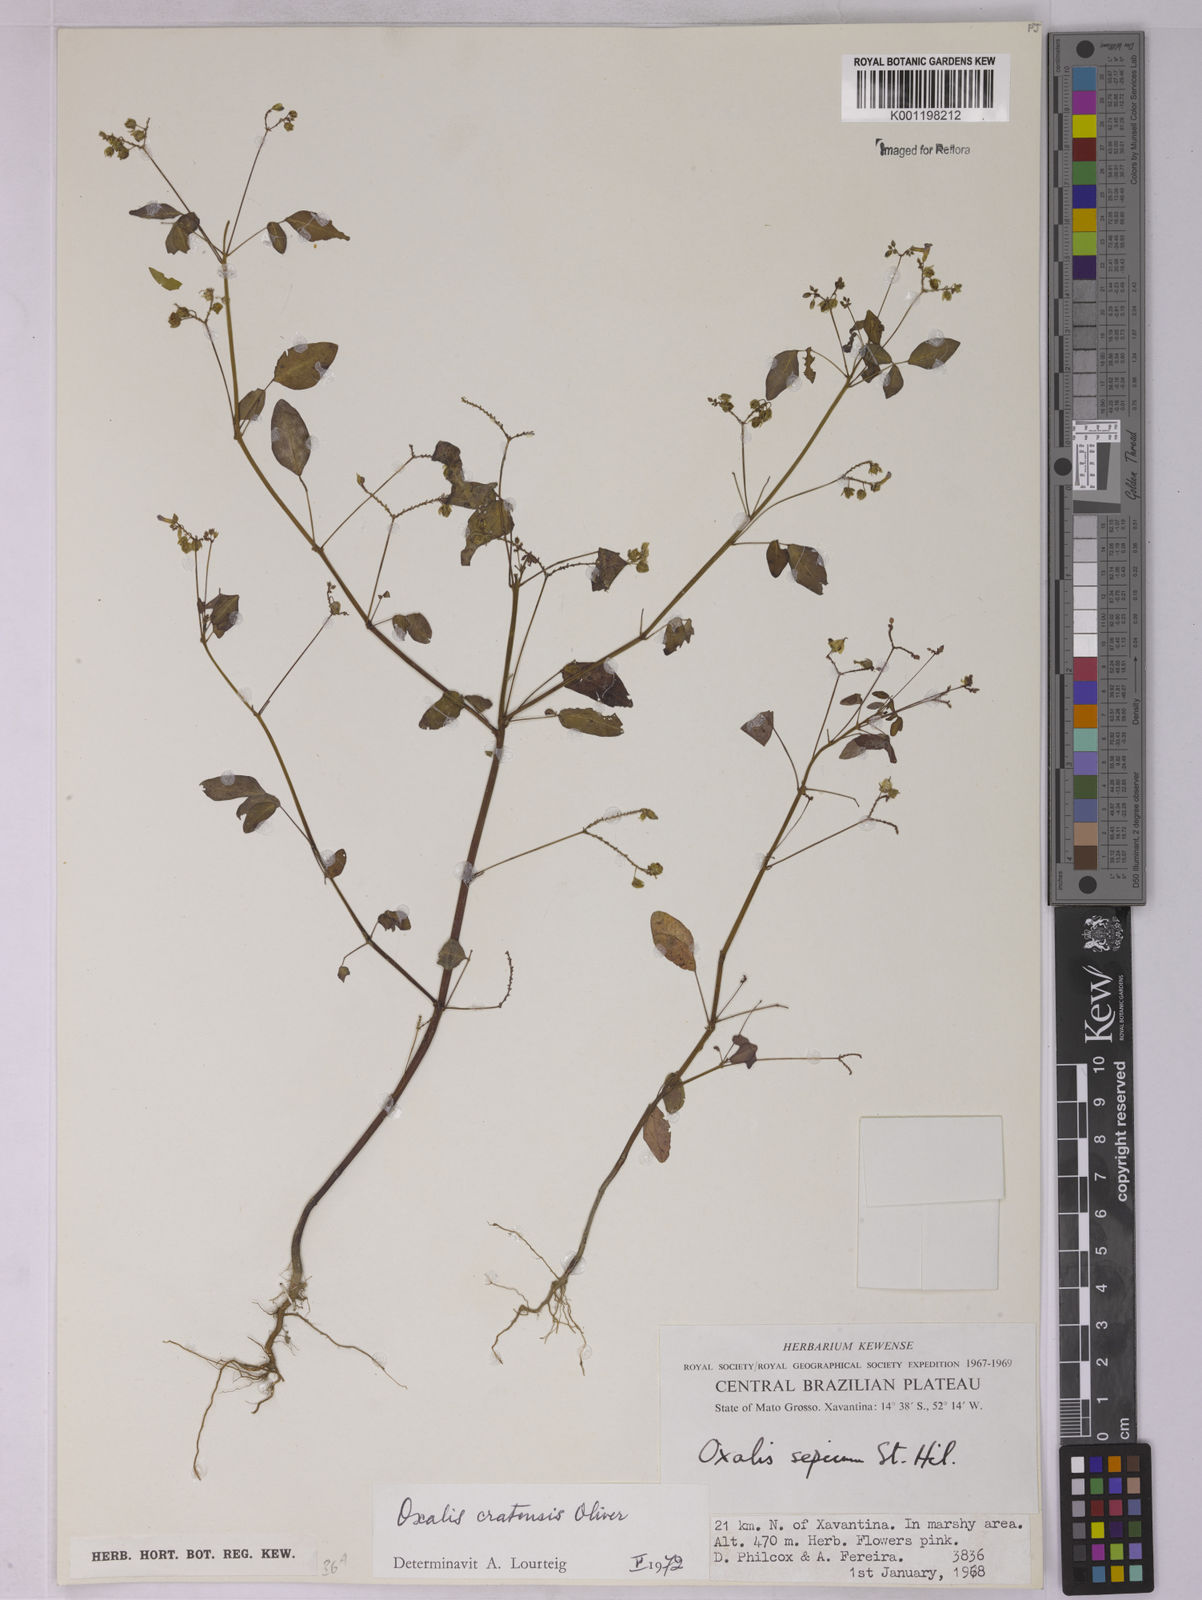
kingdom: Plantae
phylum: Tracheophyta
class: Magnoliopsida
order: Oxalidales
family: Oxalidaceae
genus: Oxalis
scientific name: Oxalis cratensis
